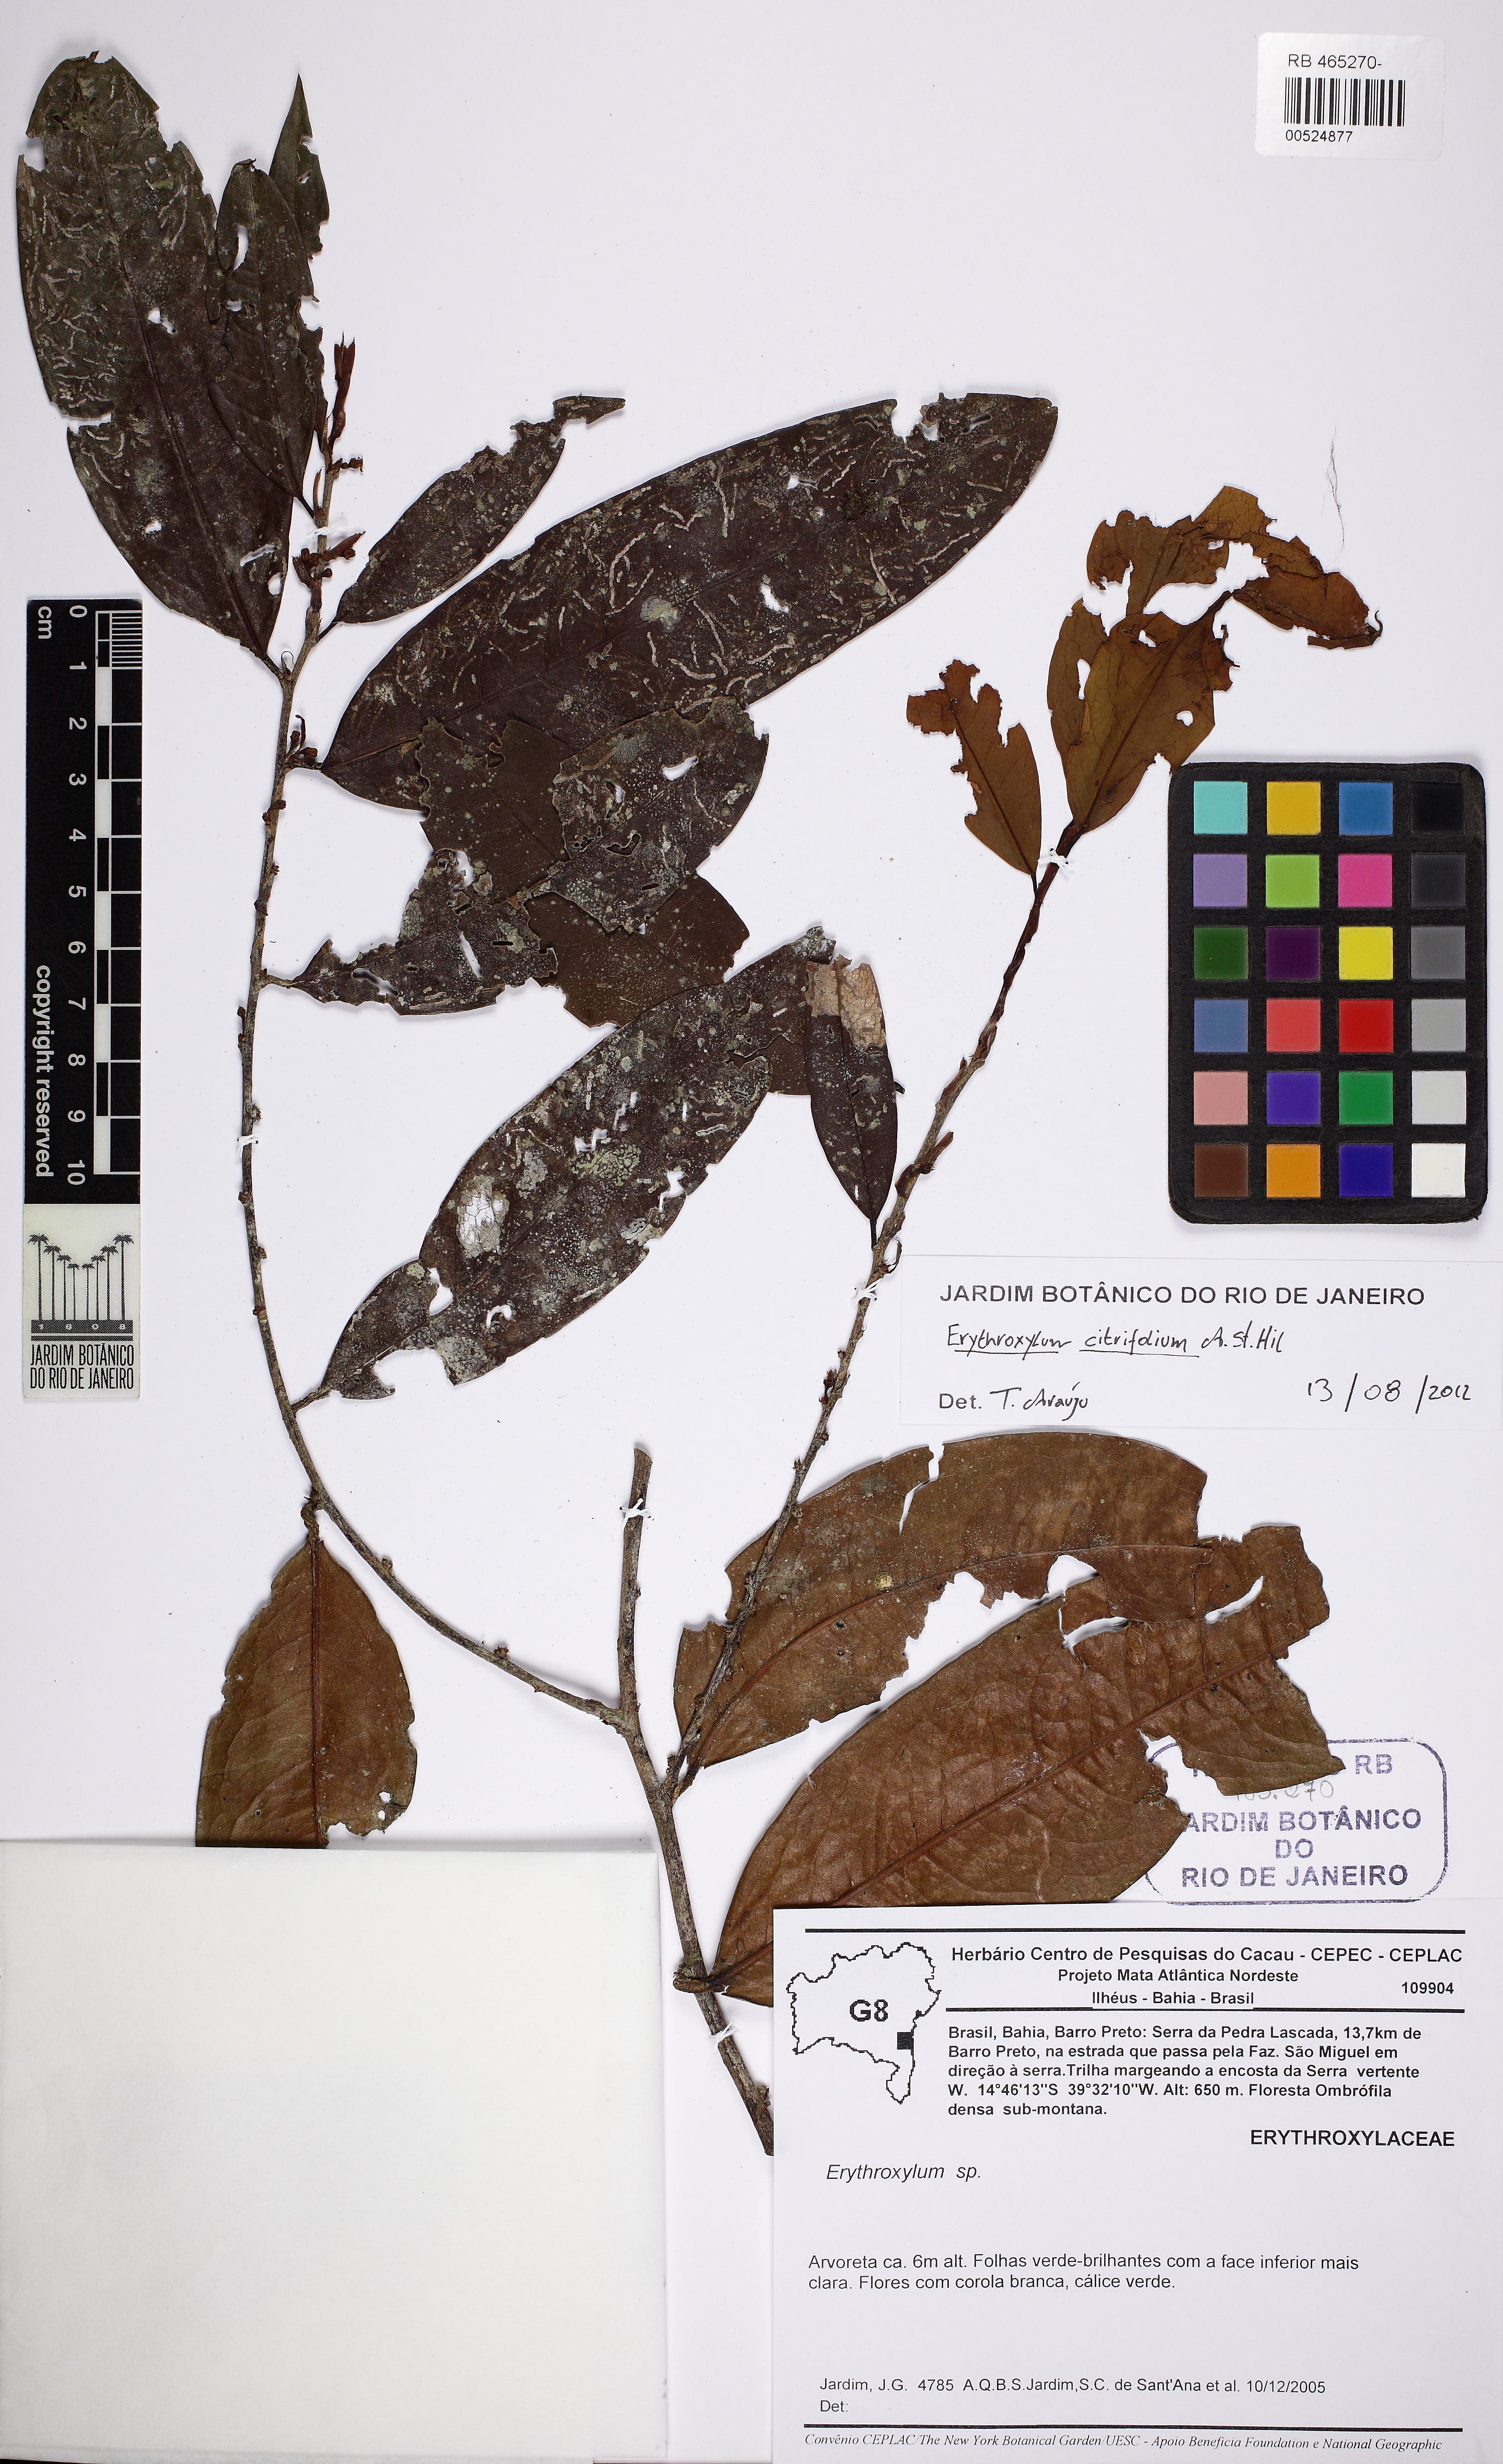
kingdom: Plantae
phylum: Tracheophyta
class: Magnoliopsida
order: Malpighiales
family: Erythroxylaceae
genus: Erythroxylum
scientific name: Erythroxylum citrifolium
